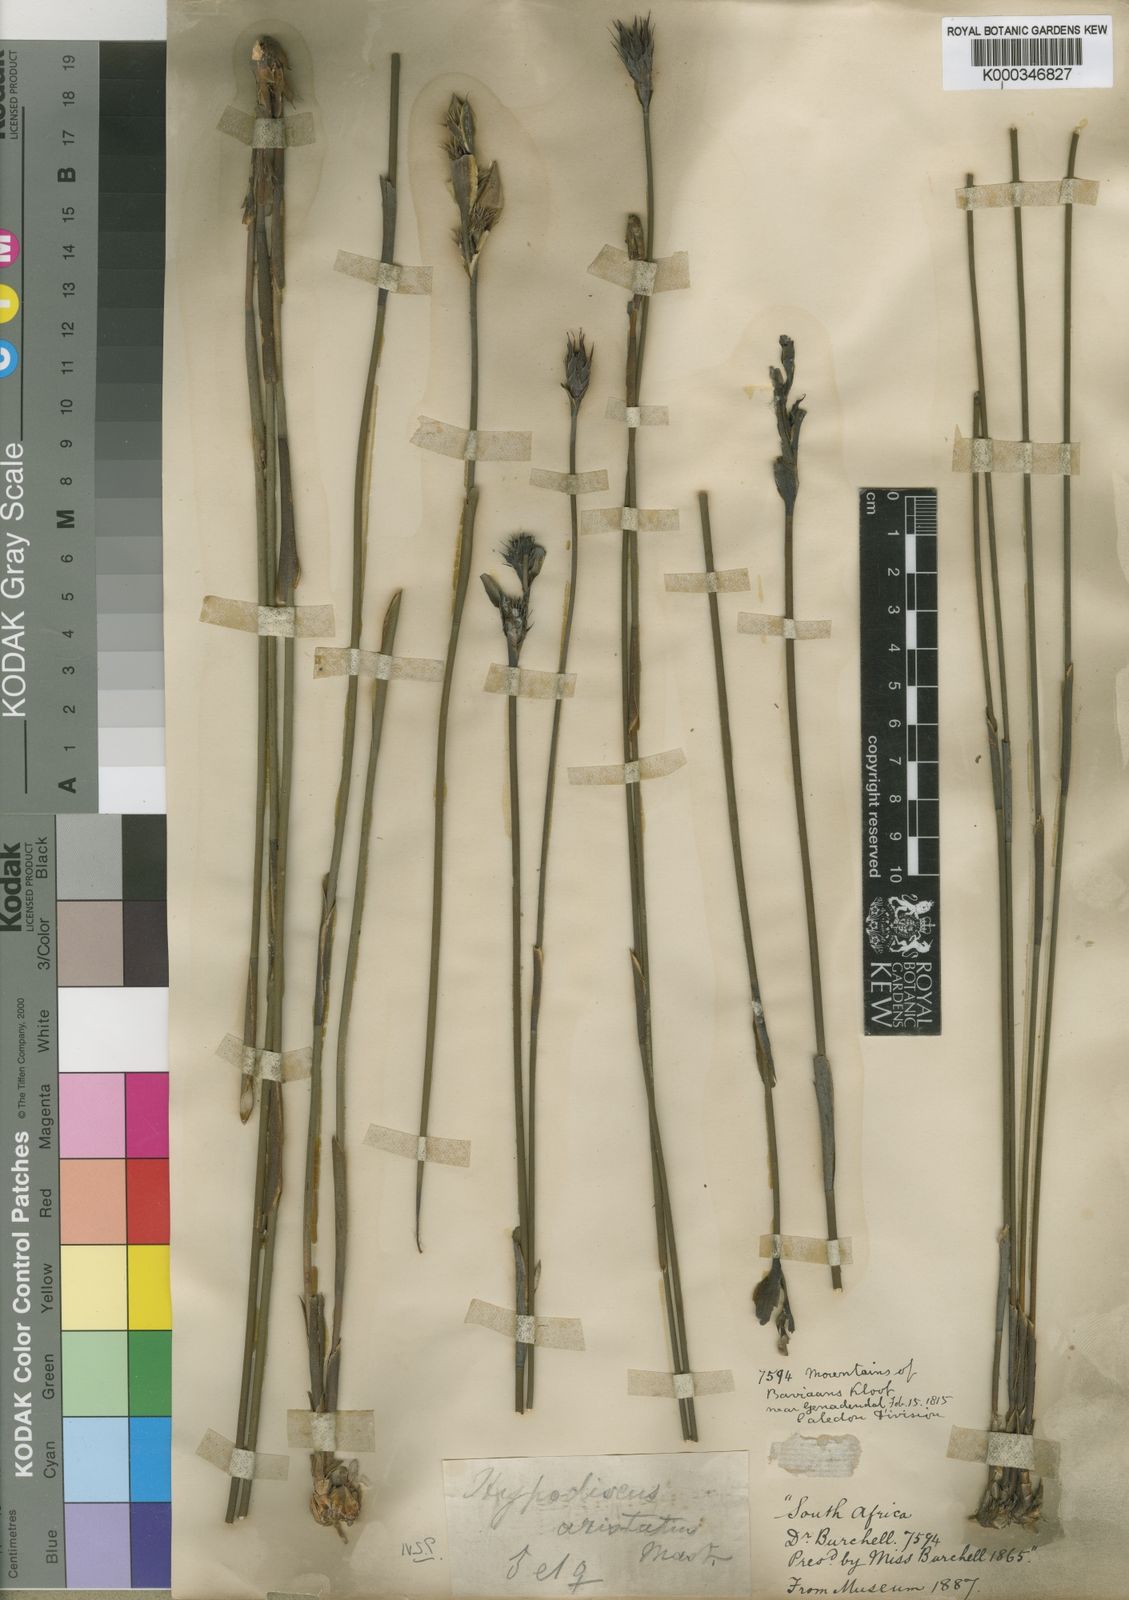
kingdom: Plantae
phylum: Tracheophyta
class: Liliopsida
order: Poales
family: Restionaceae
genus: Hypodiscus
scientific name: Hypodiscus aristatus
